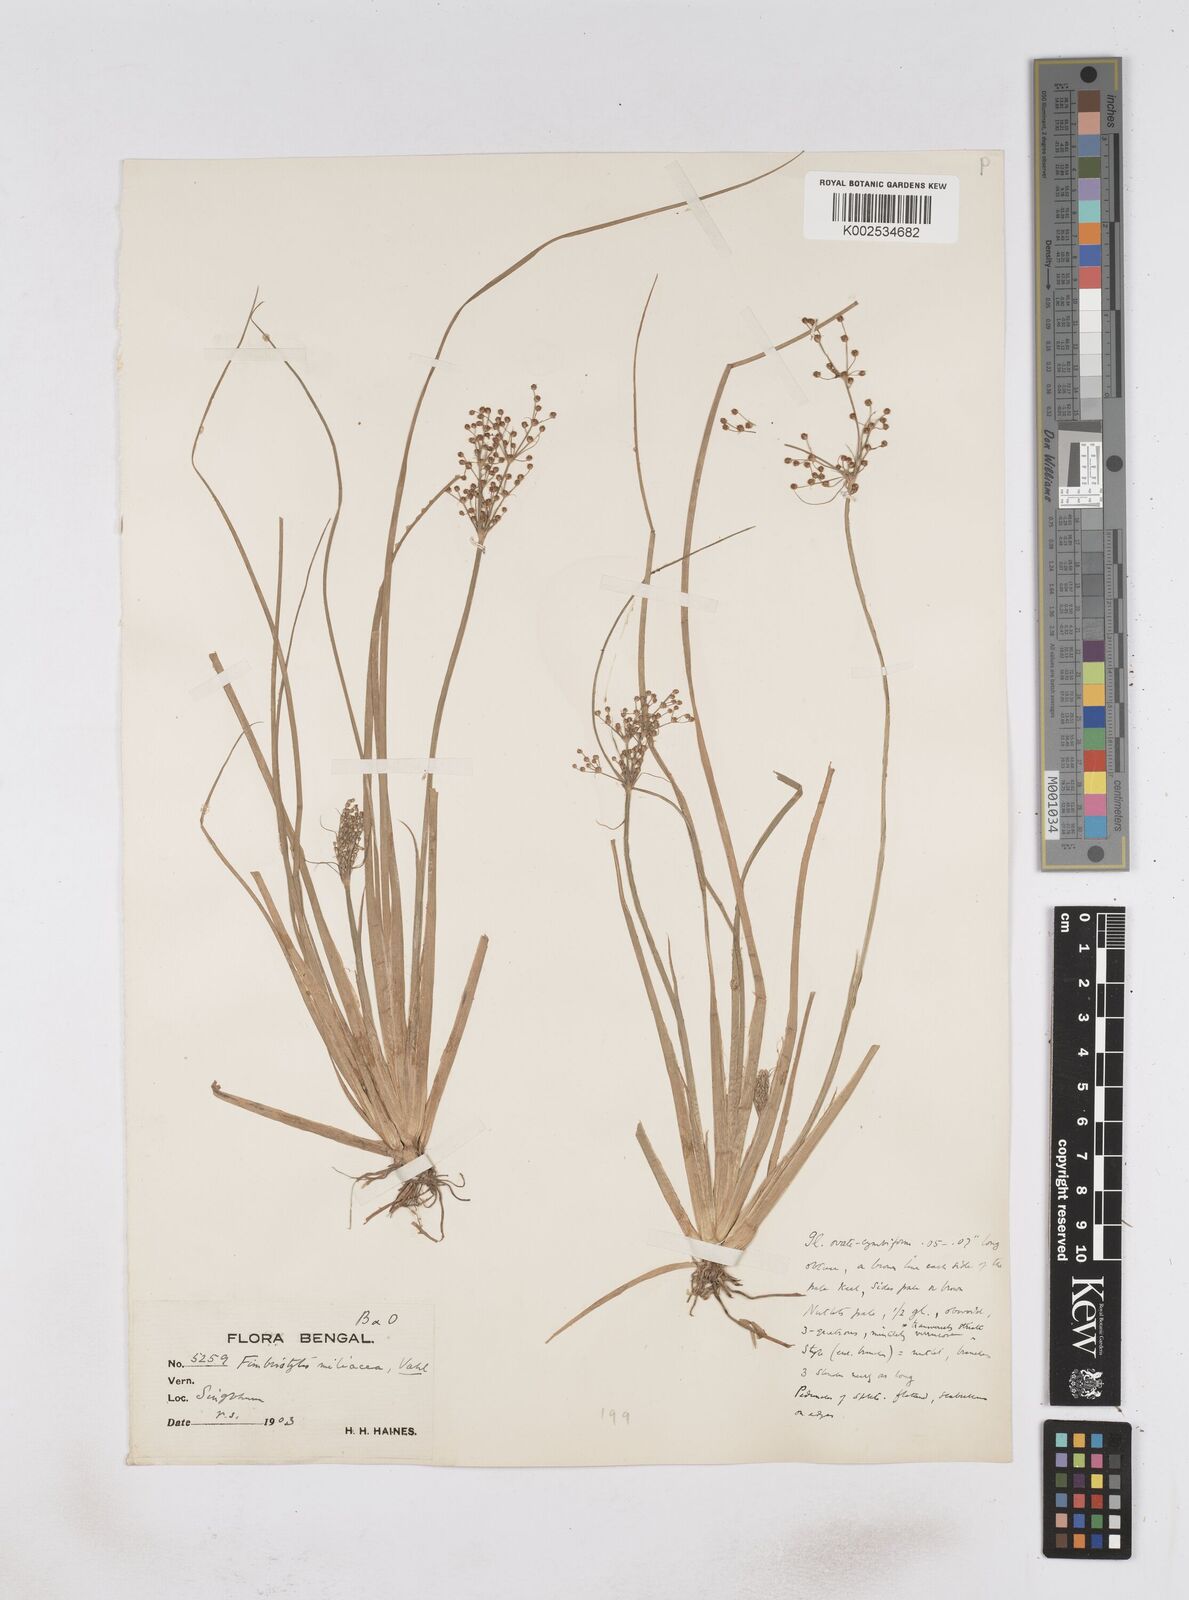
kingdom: Plantae
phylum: Tracheophyta
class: Liliopsida
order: Poales
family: Cyperaceae
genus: Fimbristylis
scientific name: Fimbristylis littoralis
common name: Fimbry
